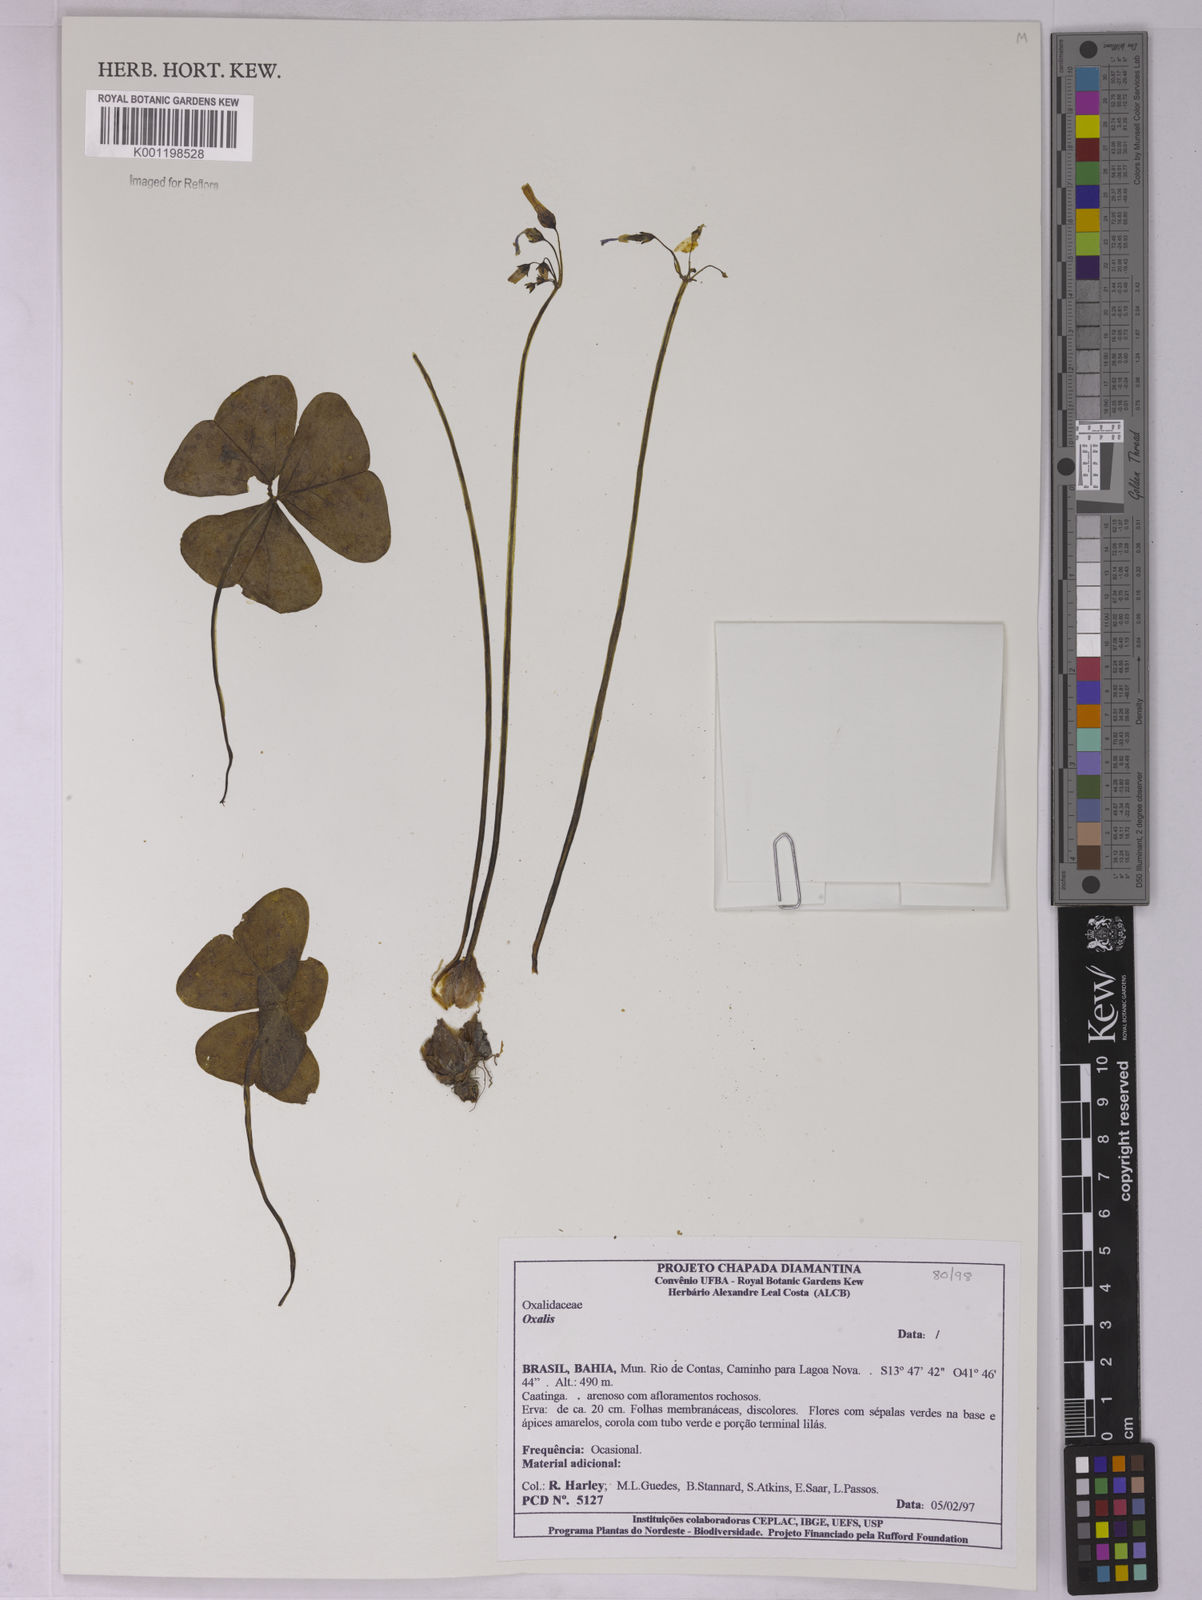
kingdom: Plantae
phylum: Tracheophyta
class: Magnoliopsida
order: Oxalidales
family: Oxalidaceae
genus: Oxalis
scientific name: Oxalis
